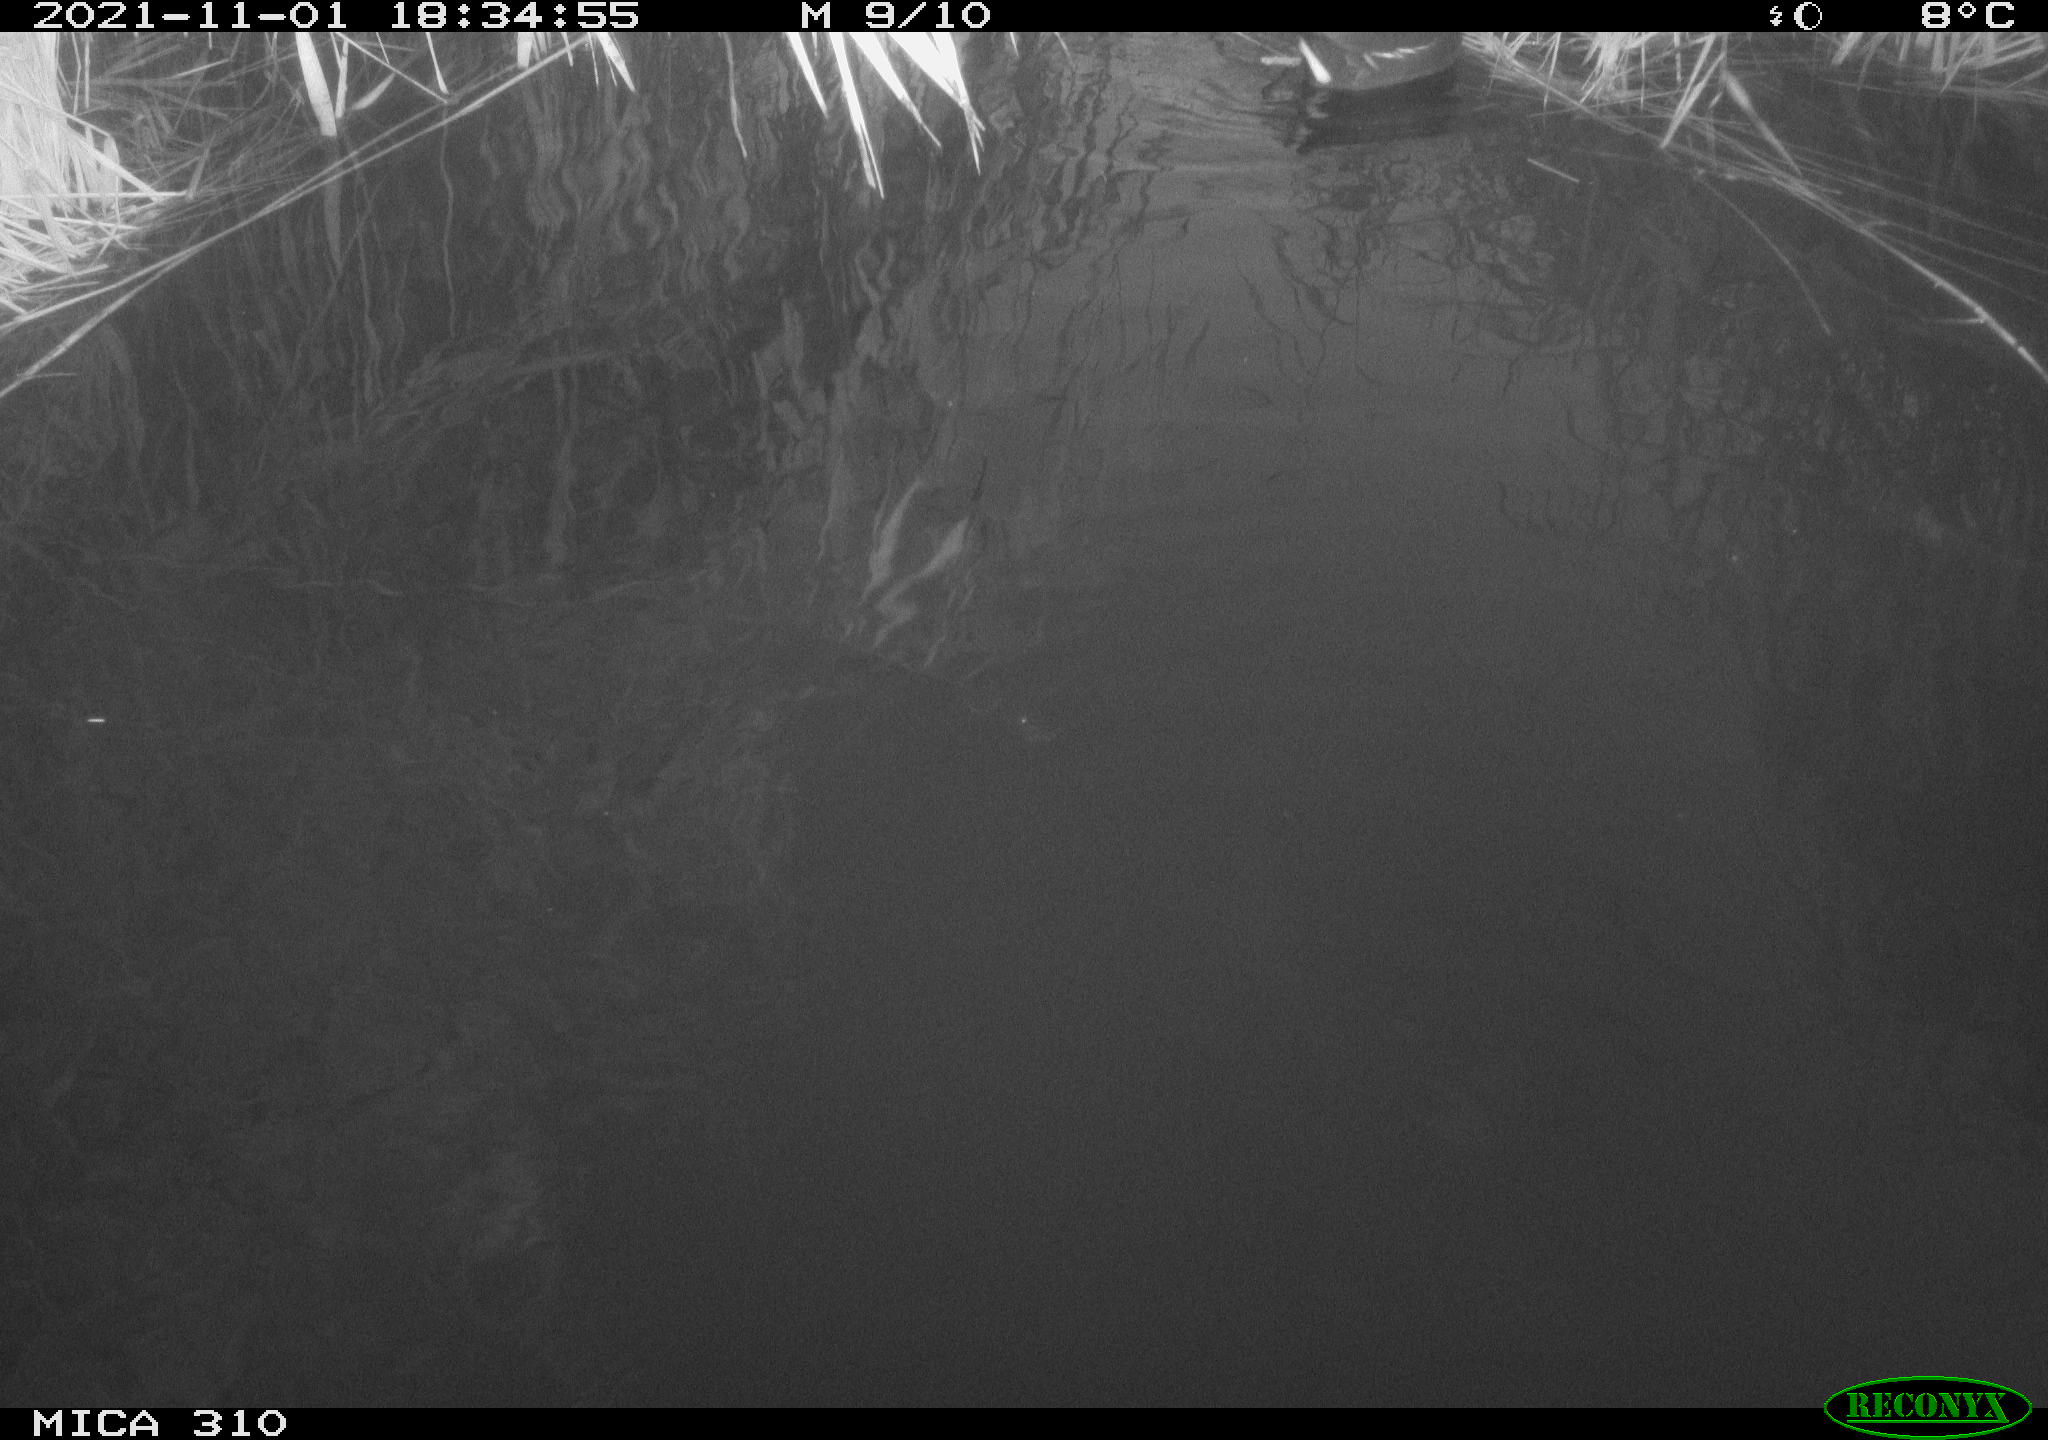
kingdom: Animalia
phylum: Chordata
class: Aves
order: Gruiformes
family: Rallidae
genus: Gallinula
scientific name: Gallinula chloropus
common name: Common moorhen
